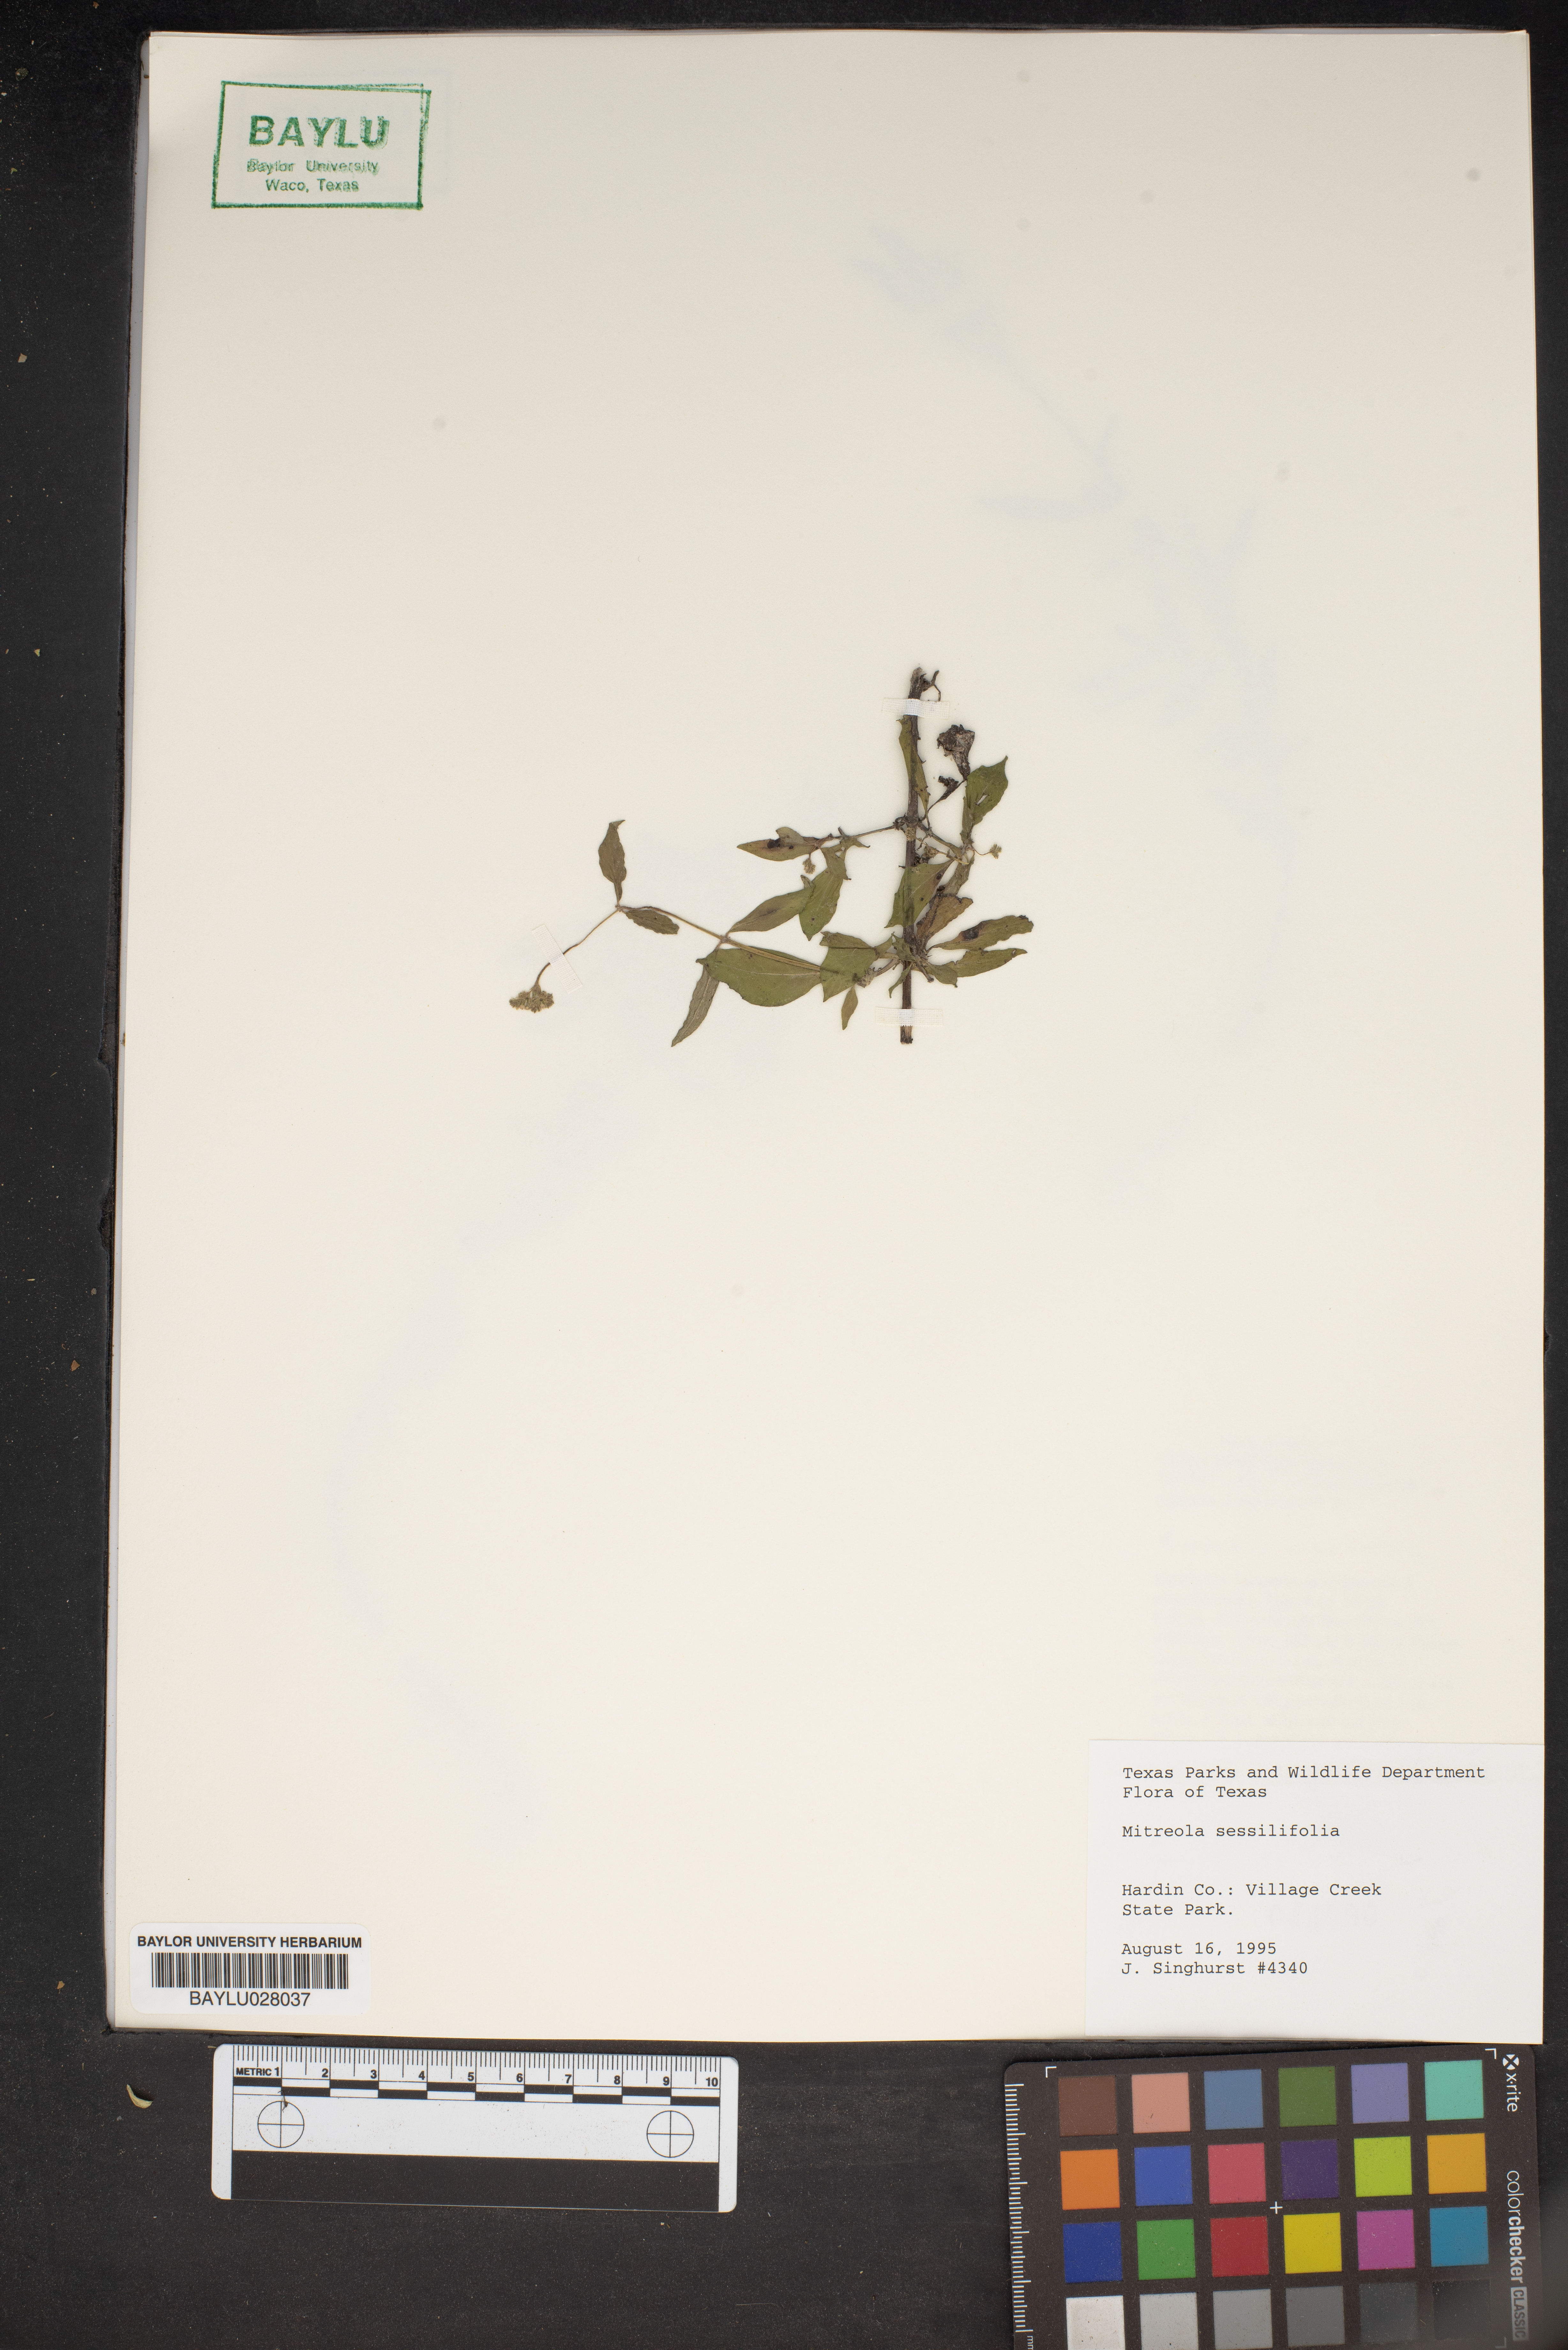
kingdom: Plantae
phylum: Tracheophyta
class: Magnoliopsida
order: Gentianales
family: Loganiaceae
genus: Mitreola
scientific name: Mitreola sessilifolia
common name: Swamp hornpod
